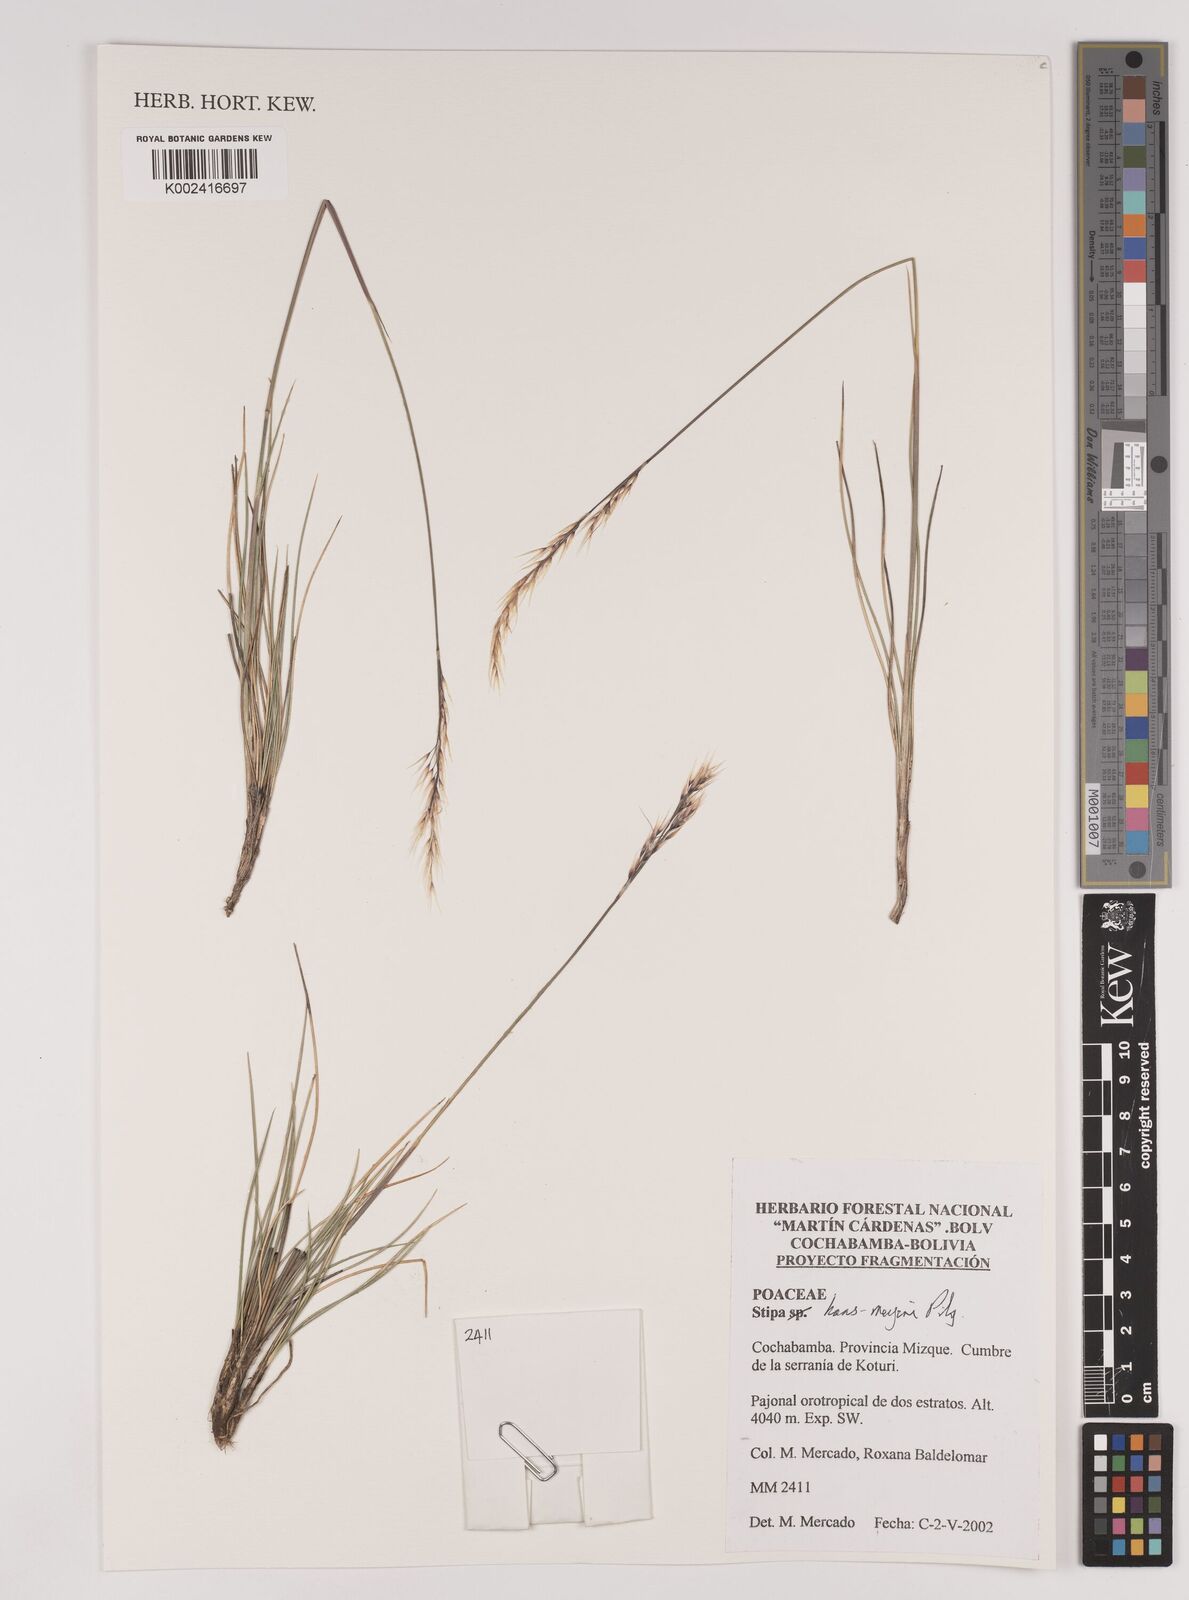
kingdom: Plantae
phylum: Tracheophyta
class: Liliopsida
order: Poales
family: Poaceae
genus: Stipa
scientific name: Stipa hans-meyeri
